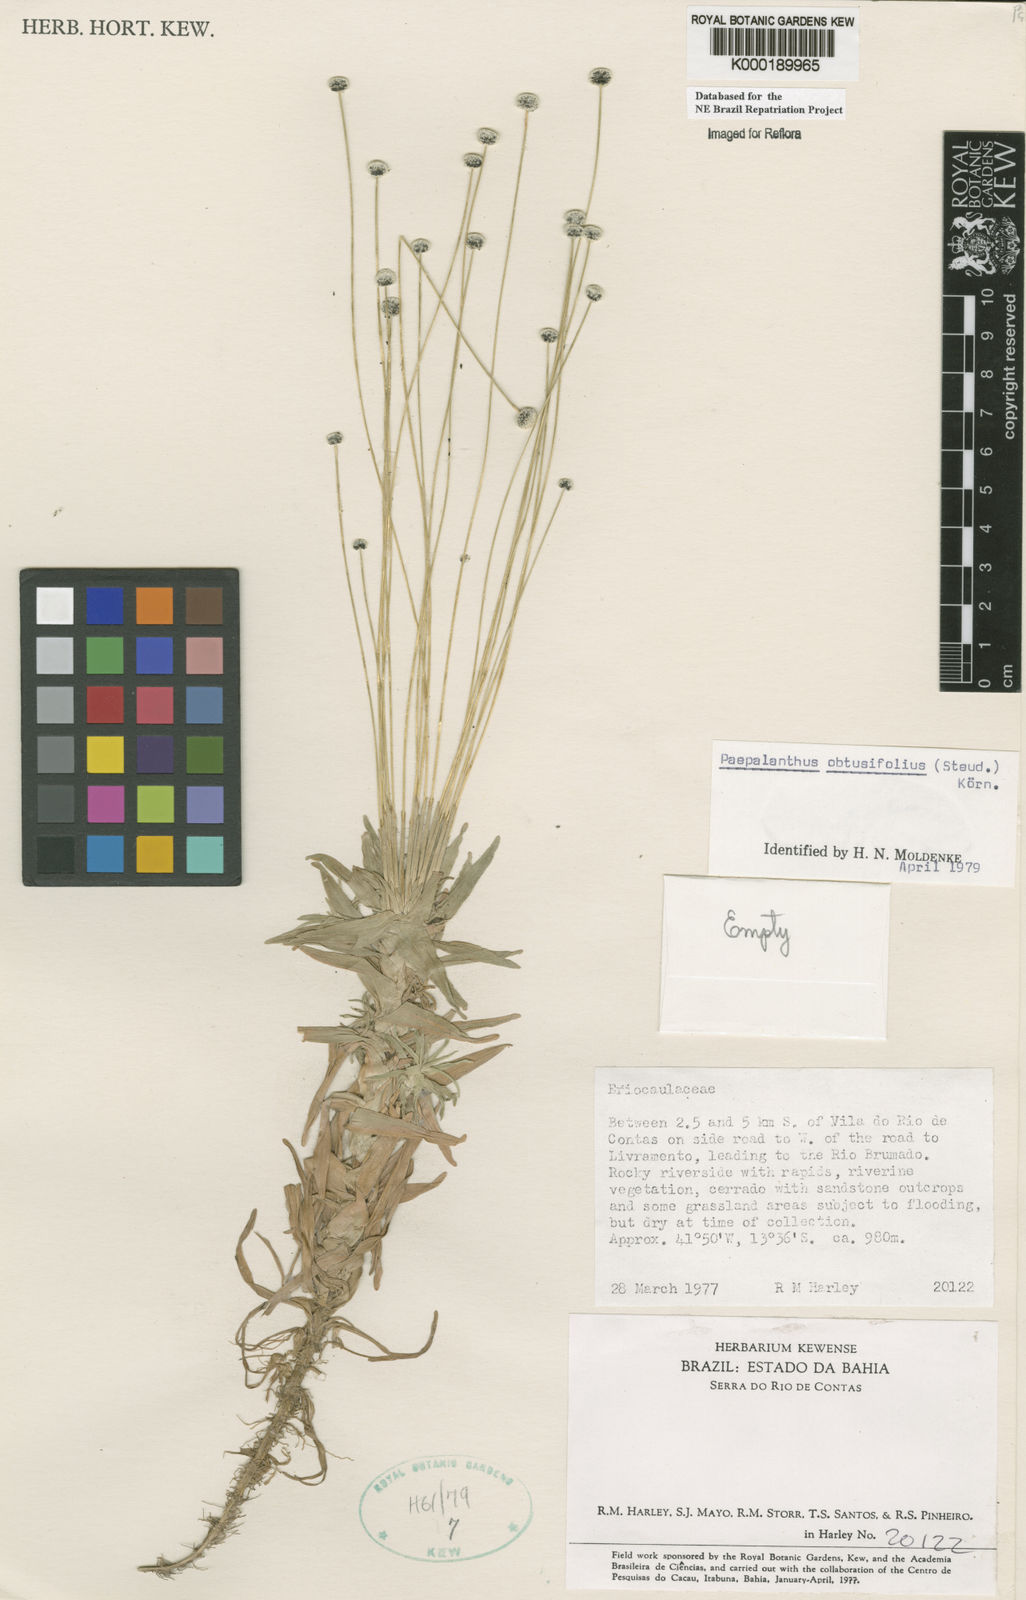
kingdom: Plantae
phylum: Tracheophyta
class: Liliopsida
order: Poales
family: Eriocaulaceae
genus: Paepalanthus
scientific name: Paepalanthus
